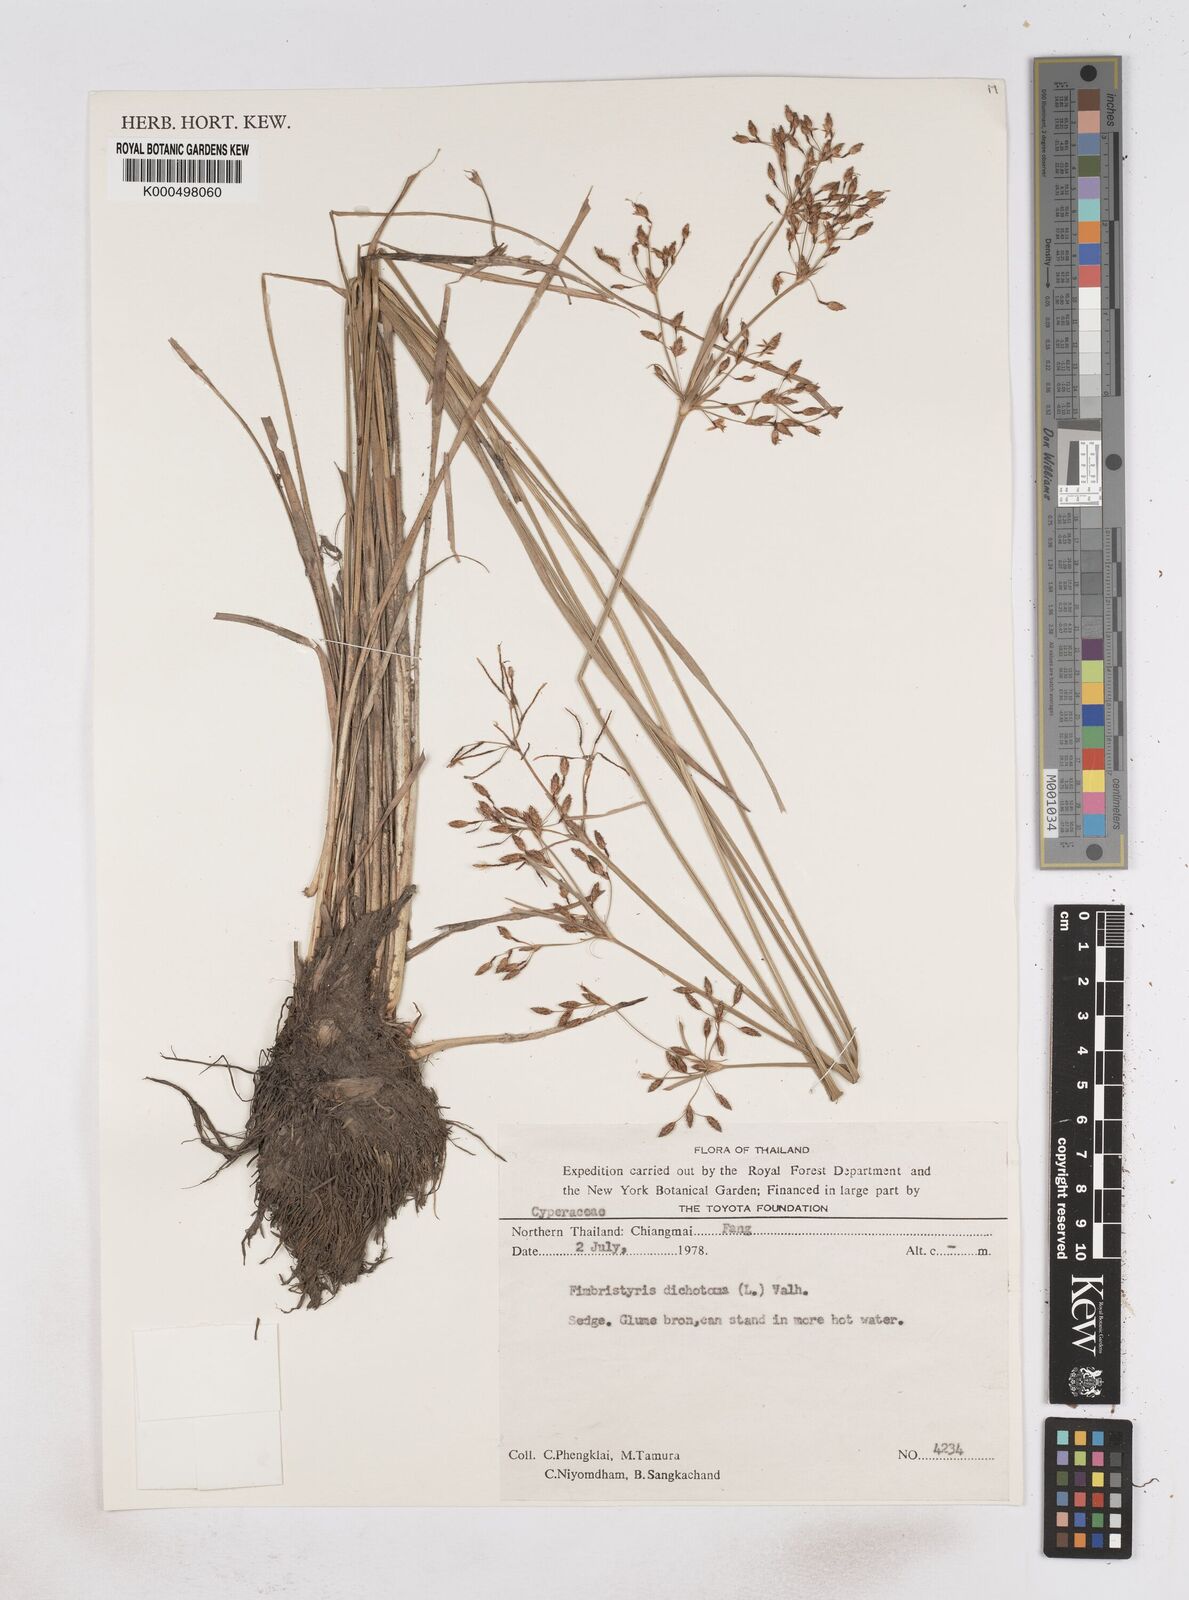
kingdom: Plantae
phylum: Tracheophyta
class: Liliopsida
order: Poales
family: Cyperaceae
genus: Fimbristylis
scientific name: Fimbristylis dichotoma
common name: Forked fimbry
